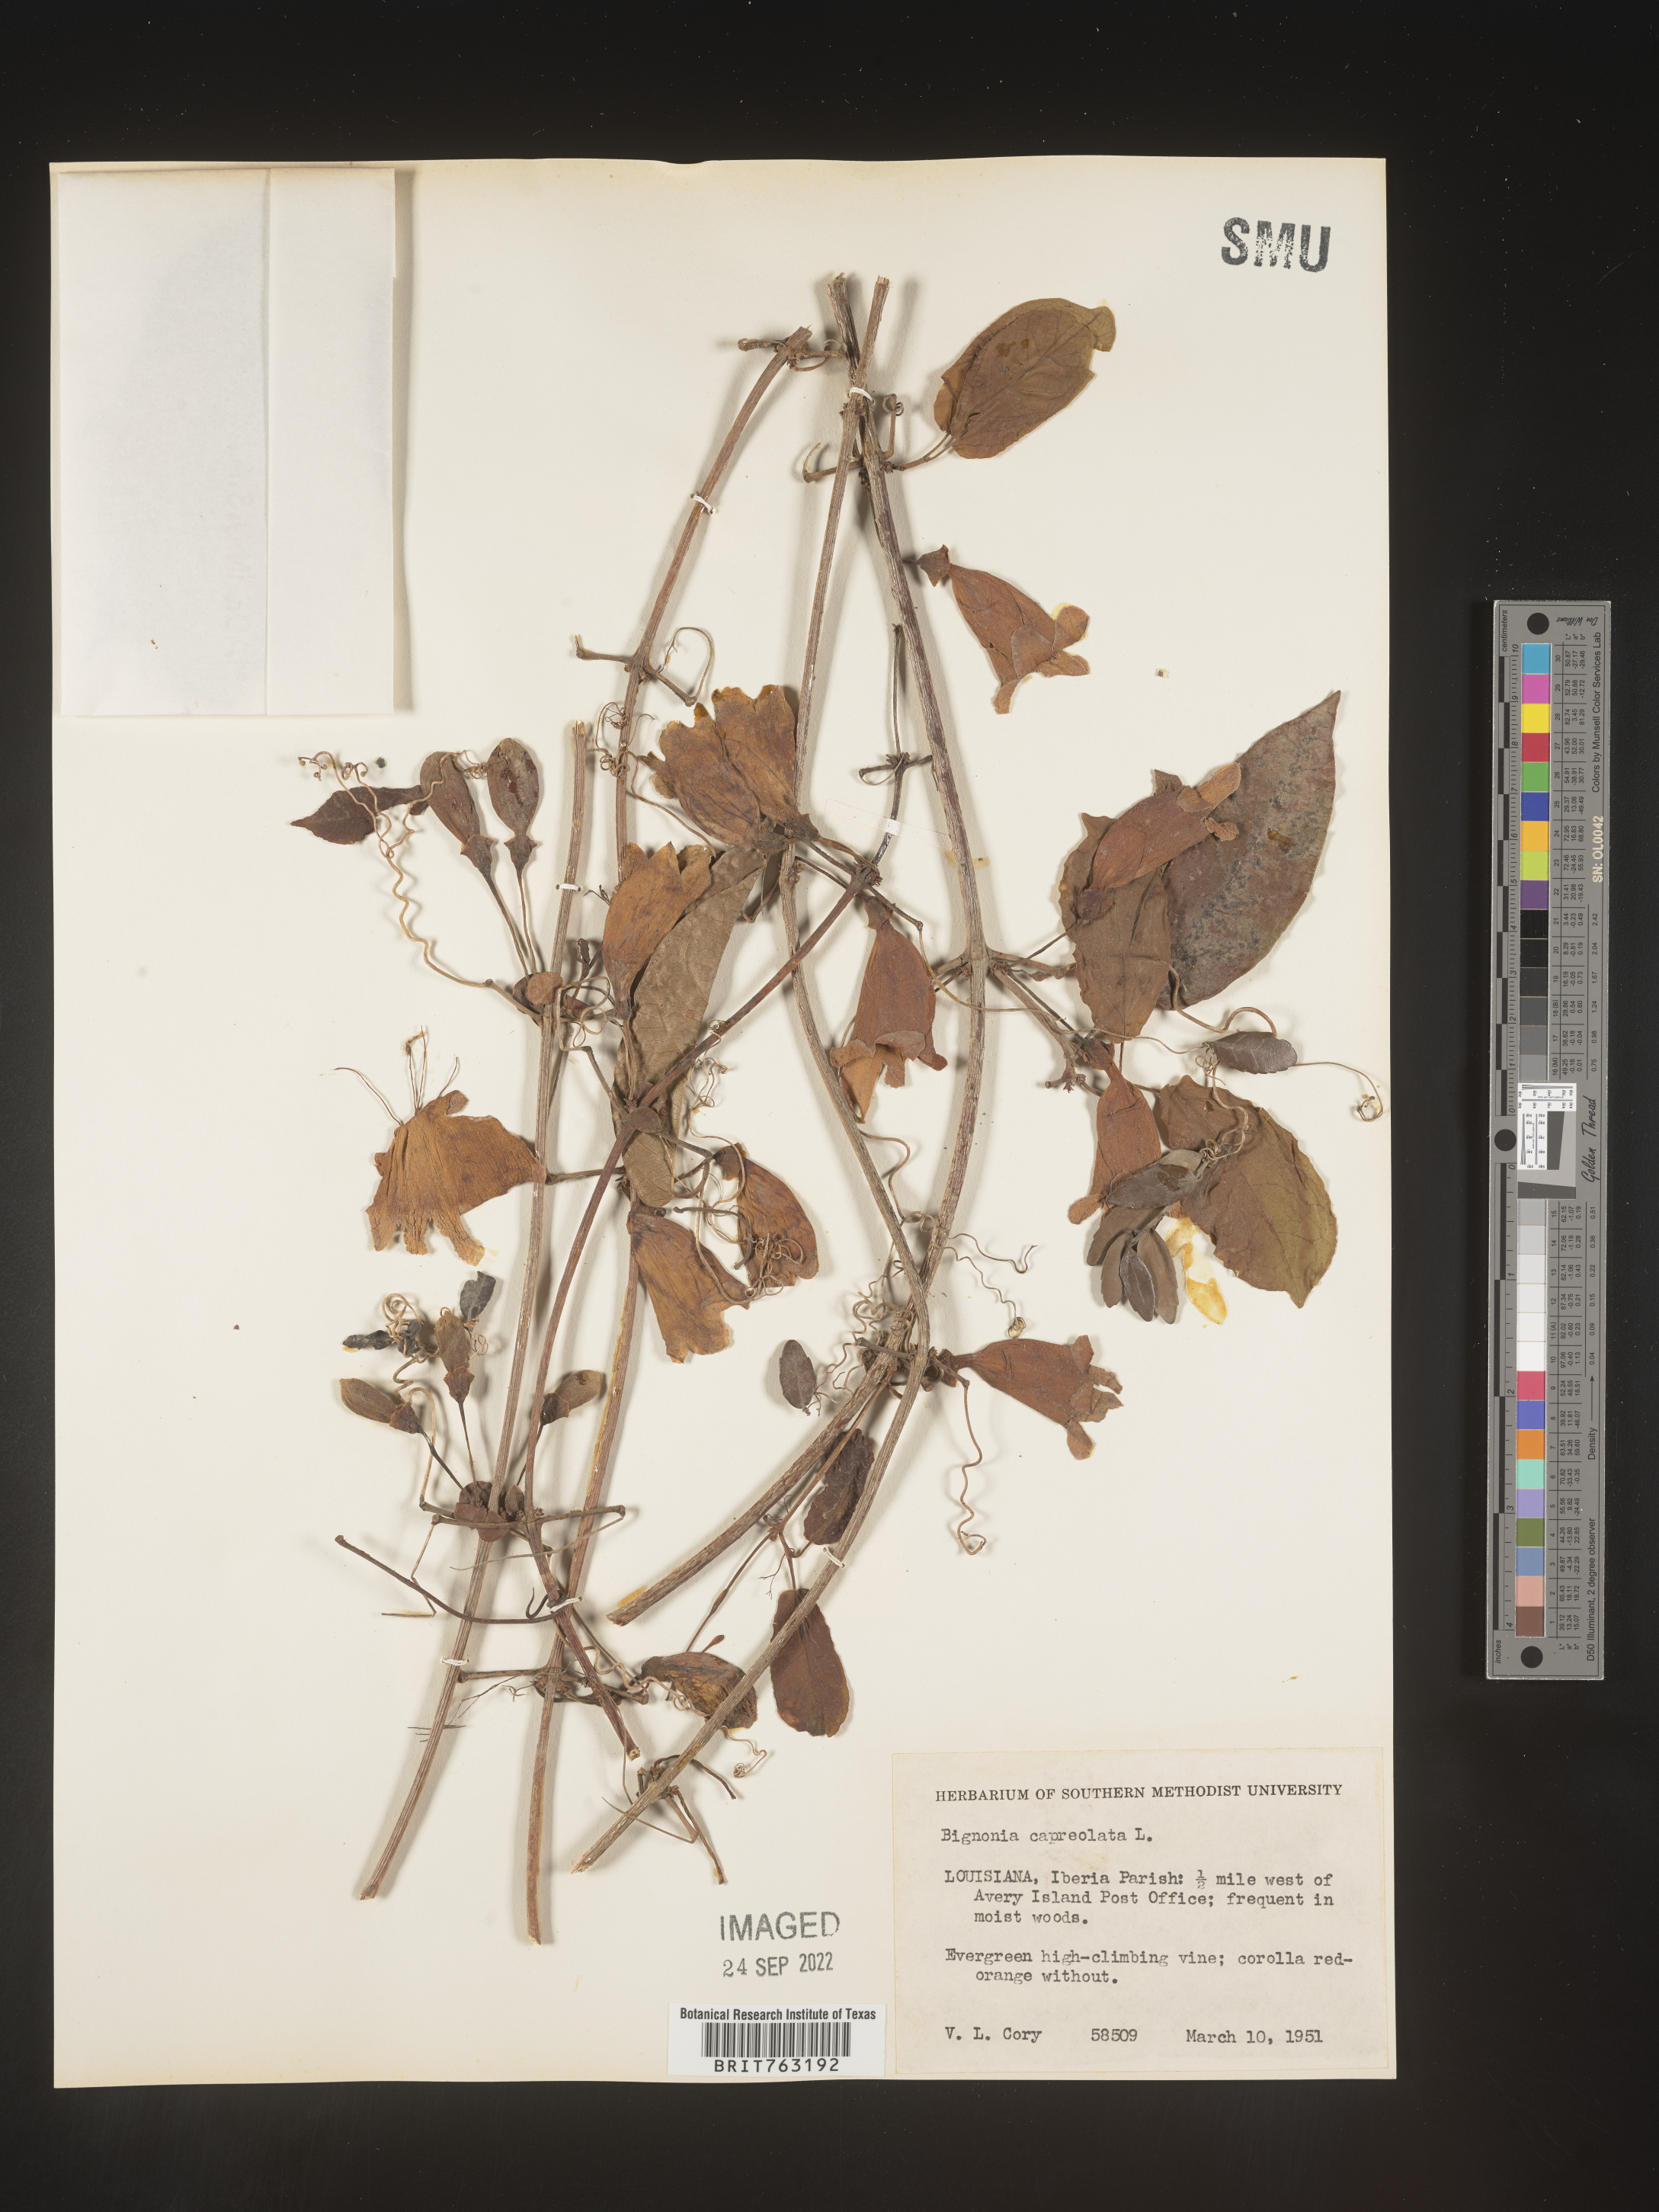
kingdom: Plantae
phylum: Tracheophyta
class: Magnoliopsida
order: Lamiales
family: Bignoniaceae
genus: Bignonia
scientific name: Bignonia capreolata
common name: Crossvine
